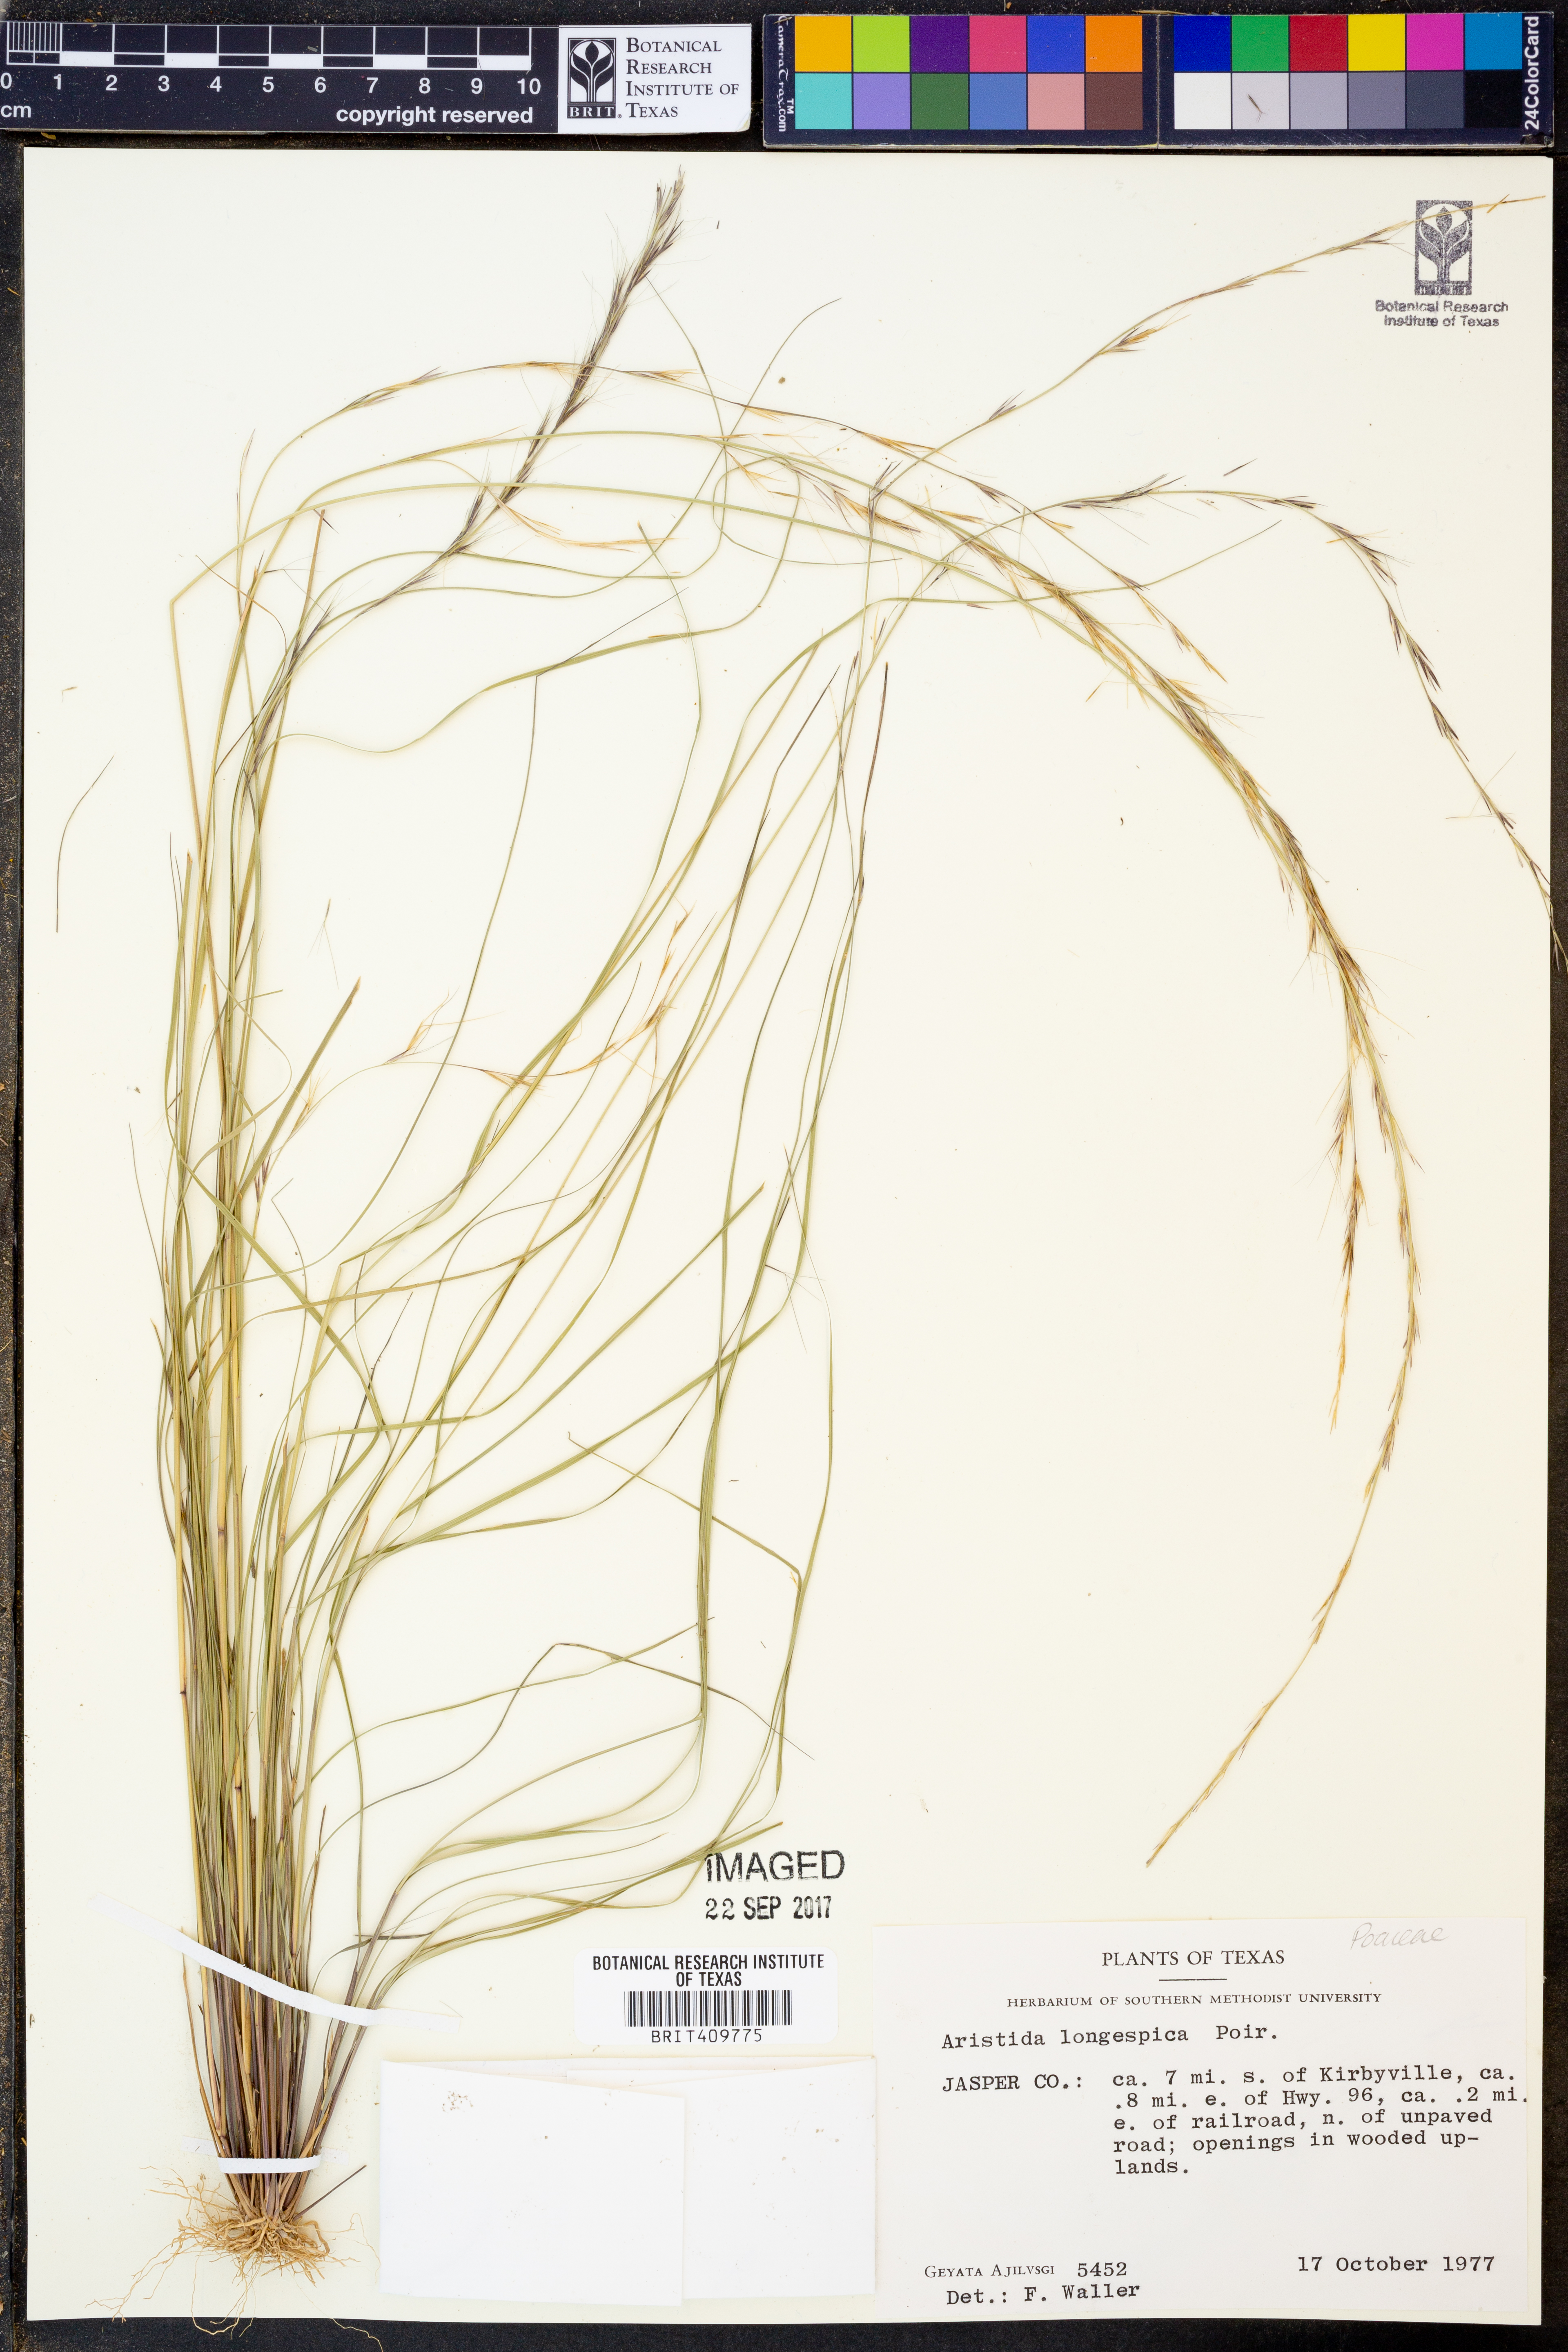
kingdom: Plantae
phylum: Tracheophyta
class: Liliopsida
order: Poales
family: Poaceae
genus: Aristida
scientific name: Aristida longespica
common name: Long-spiked triple-awned grass
